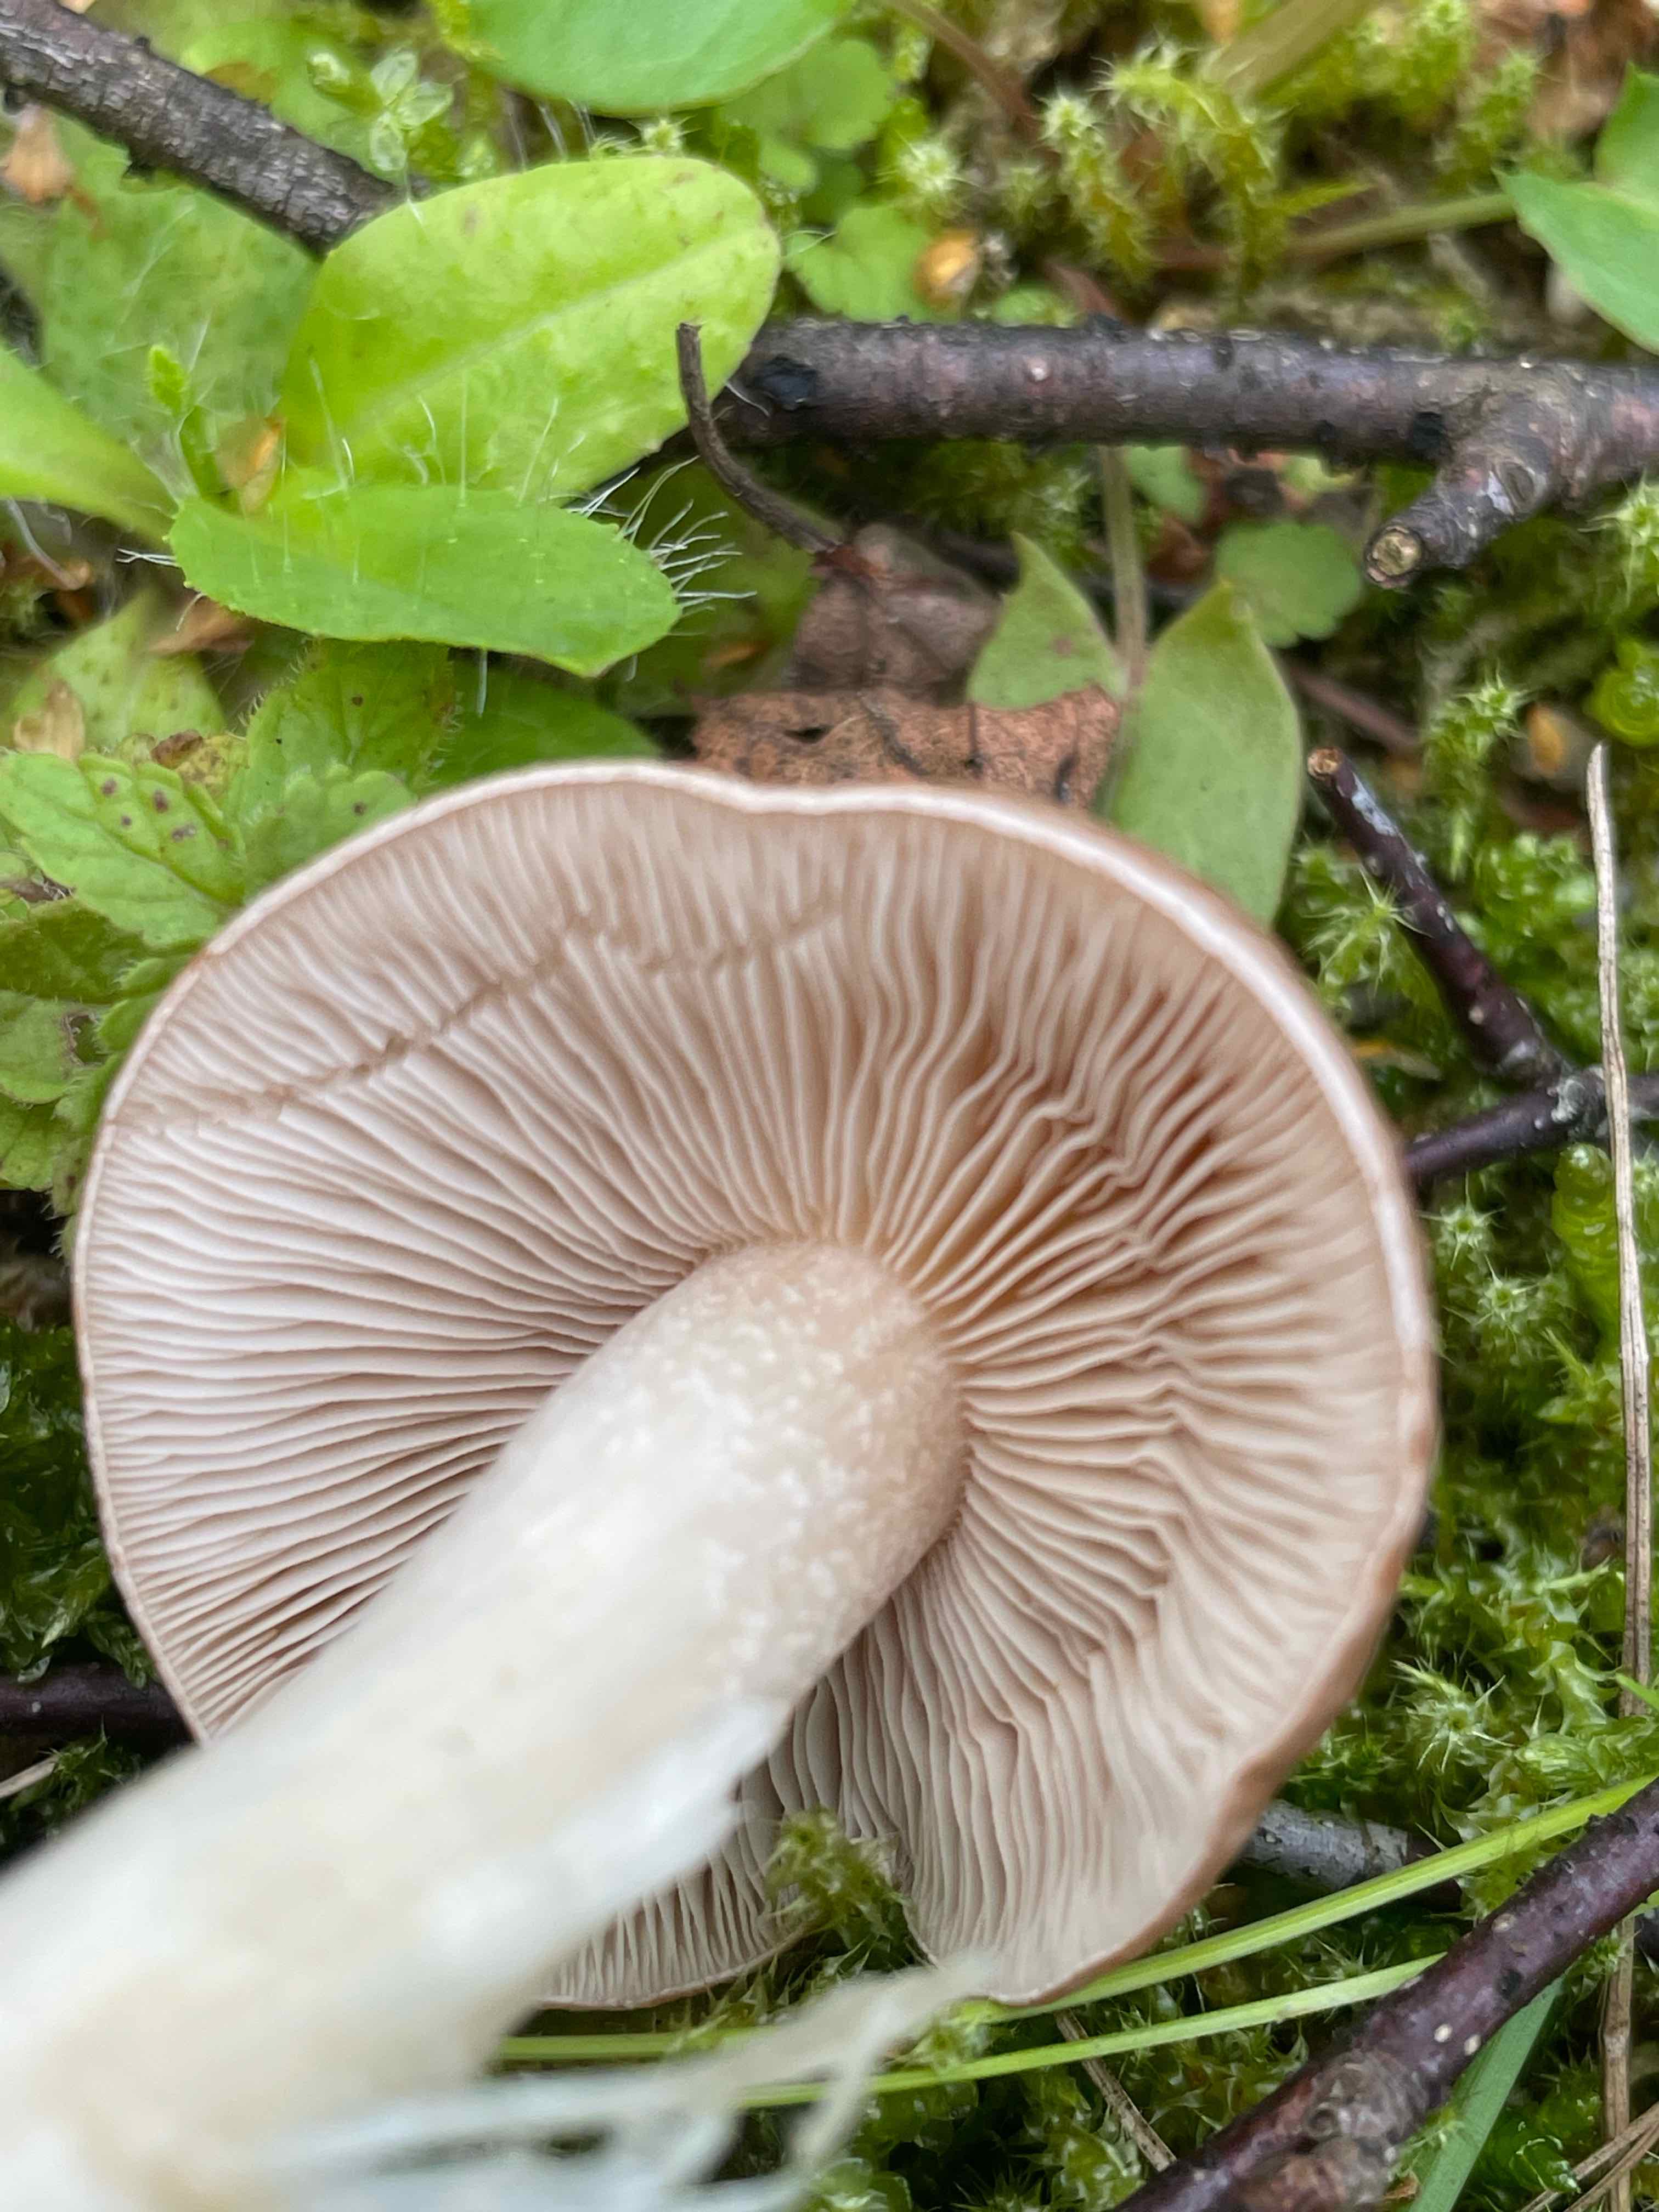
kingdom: Fungi
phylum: Basidiomycota
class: Agaricomycetes
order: Agaricales
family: Hymenogastraceae
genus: Hebeloma
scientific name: Hebeloma
